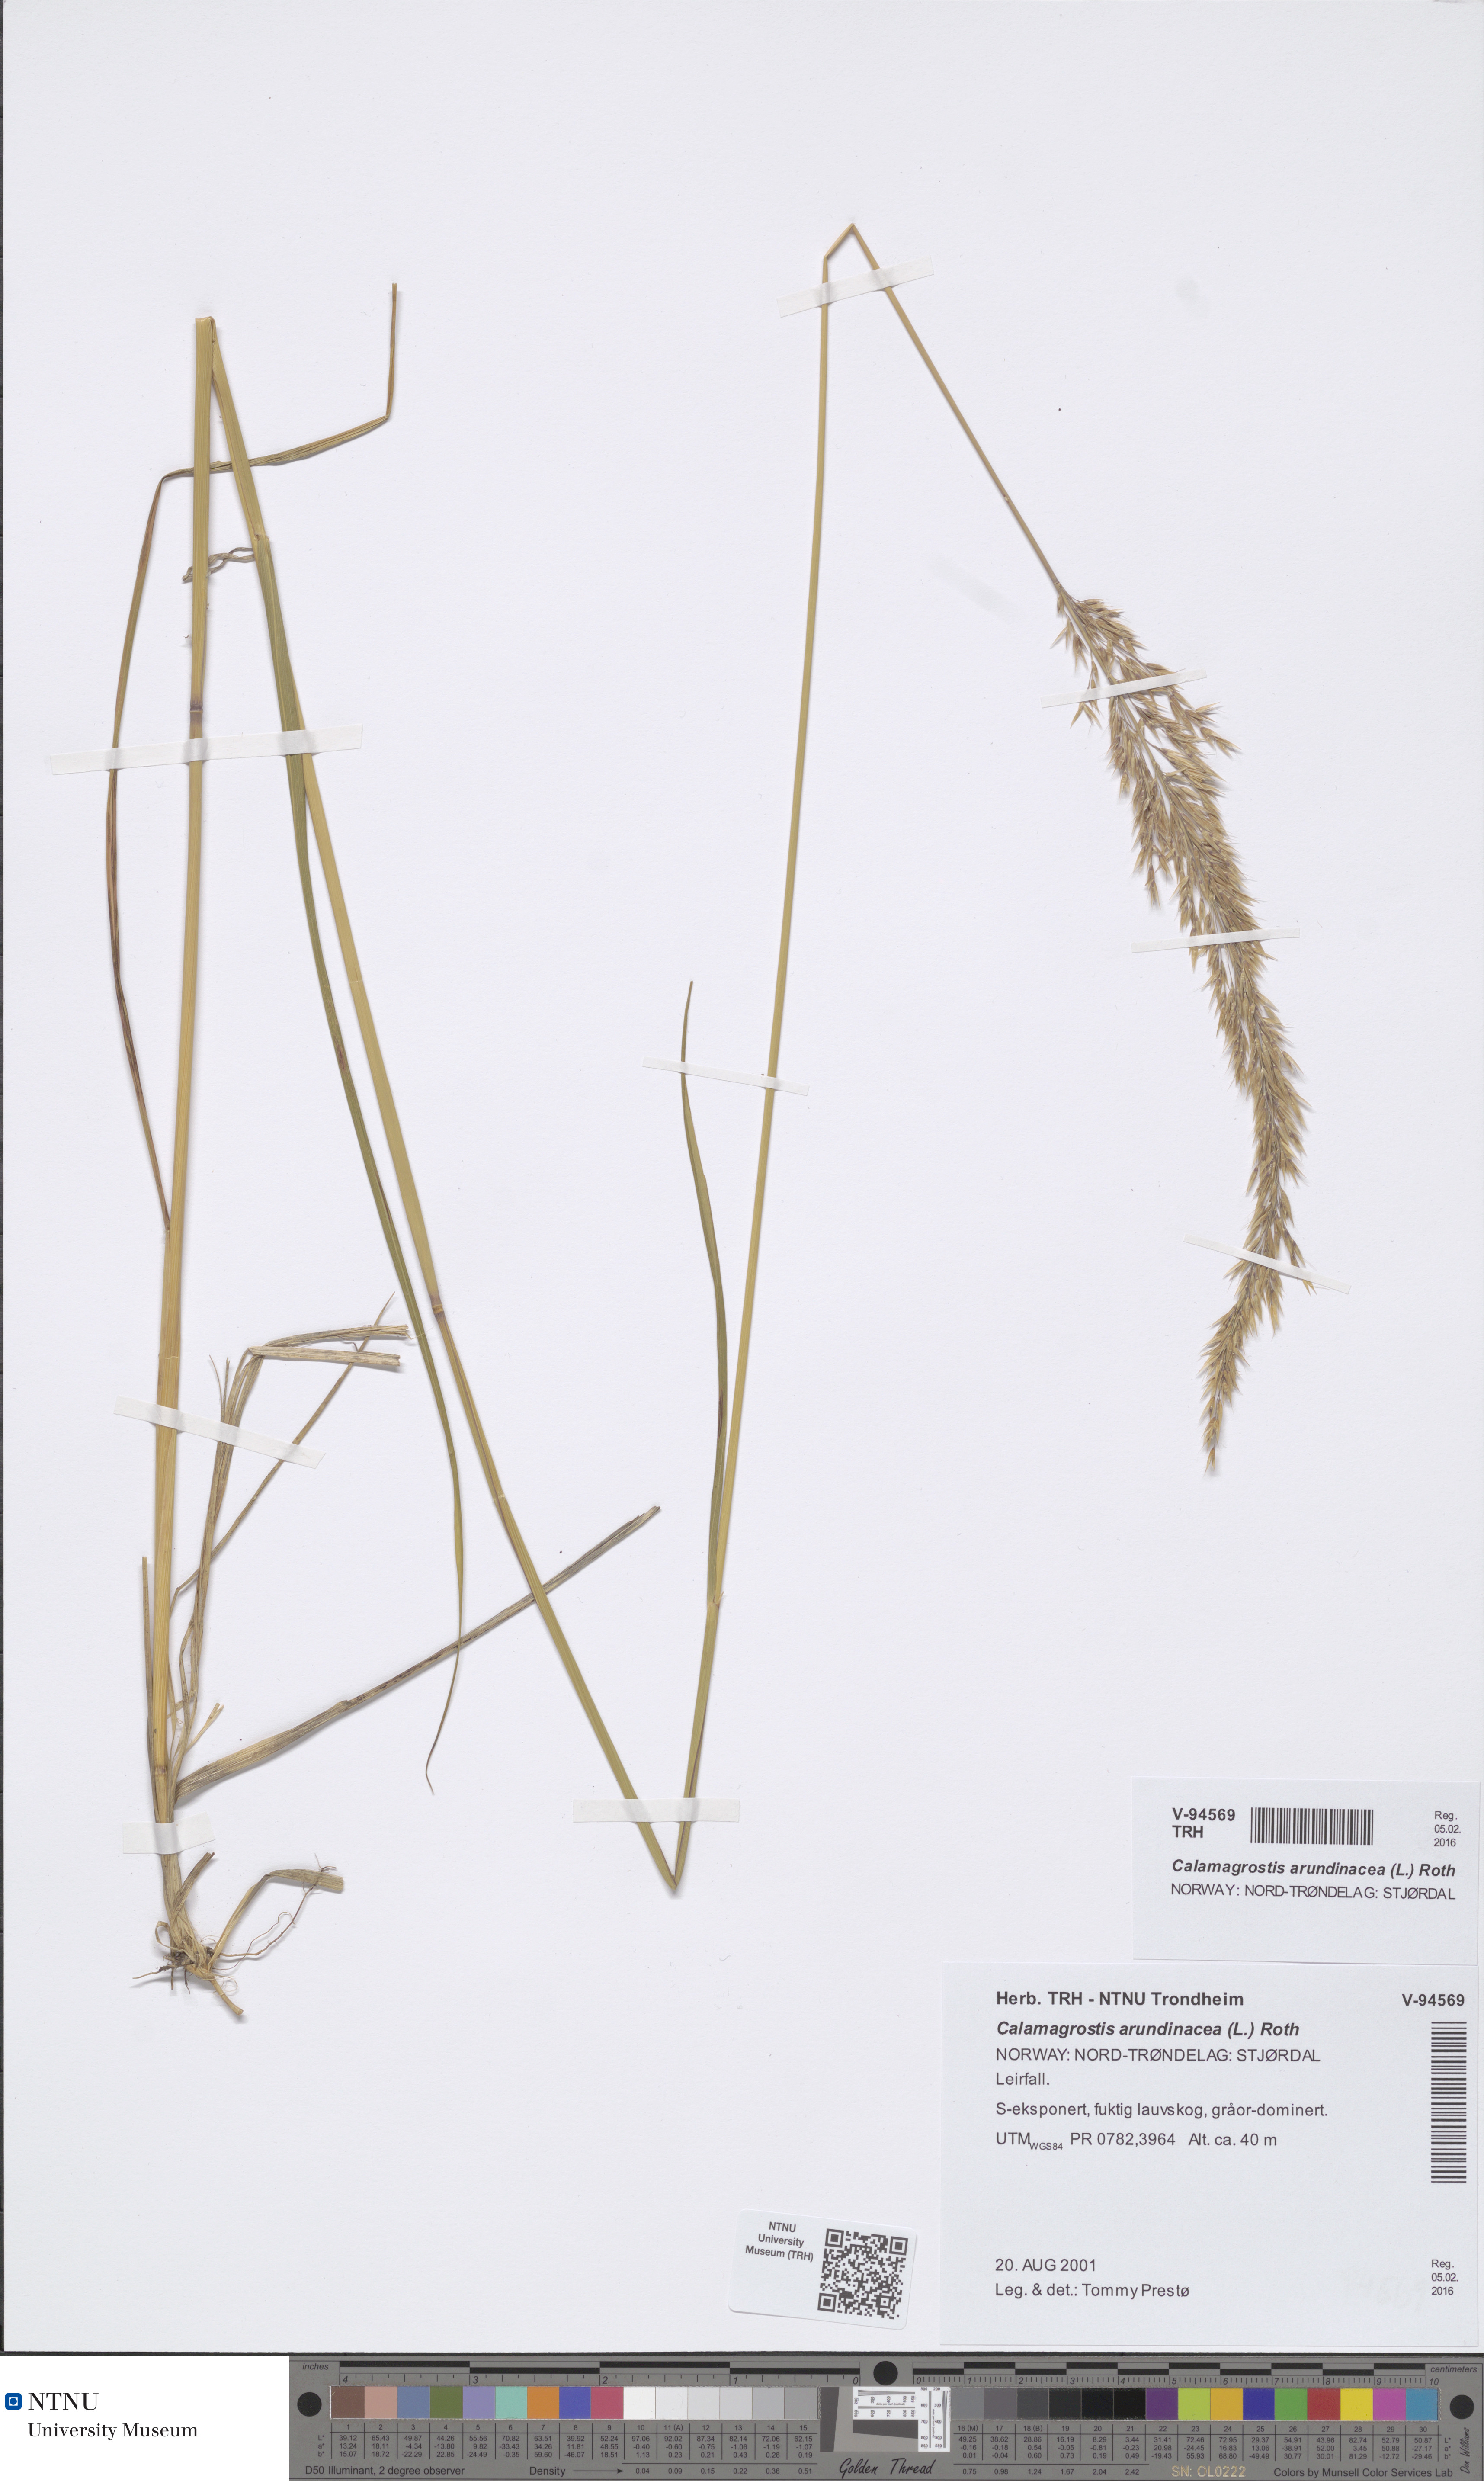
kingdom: Plantae
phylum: Tracheophyta
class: Liliopsida
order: Poales
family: Poaceae
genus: Calamagrostis
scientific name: Calamagrostis arundinacea
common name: Metskastik
